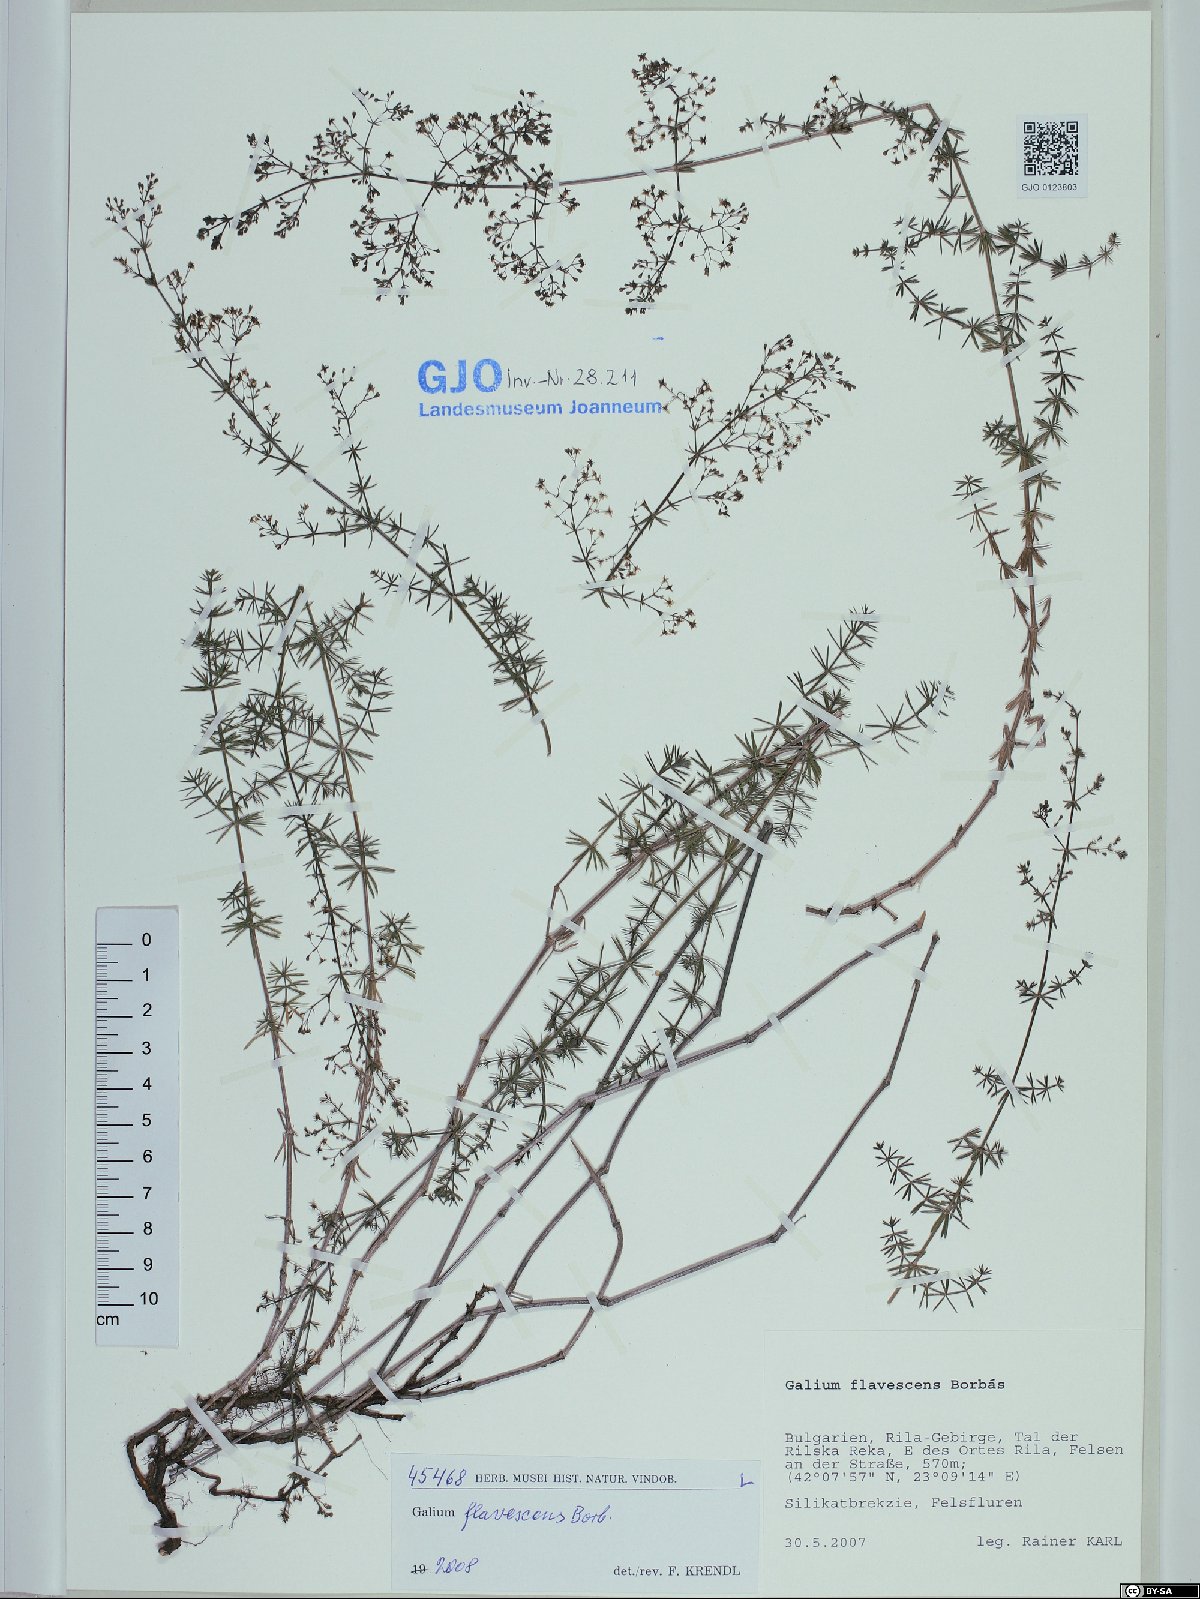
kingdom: Plantae
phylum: Tracheophyta
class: Magnoliopsida
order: Gentianales
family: Rubiaceae
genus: Galium
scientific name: Galium flavescens
